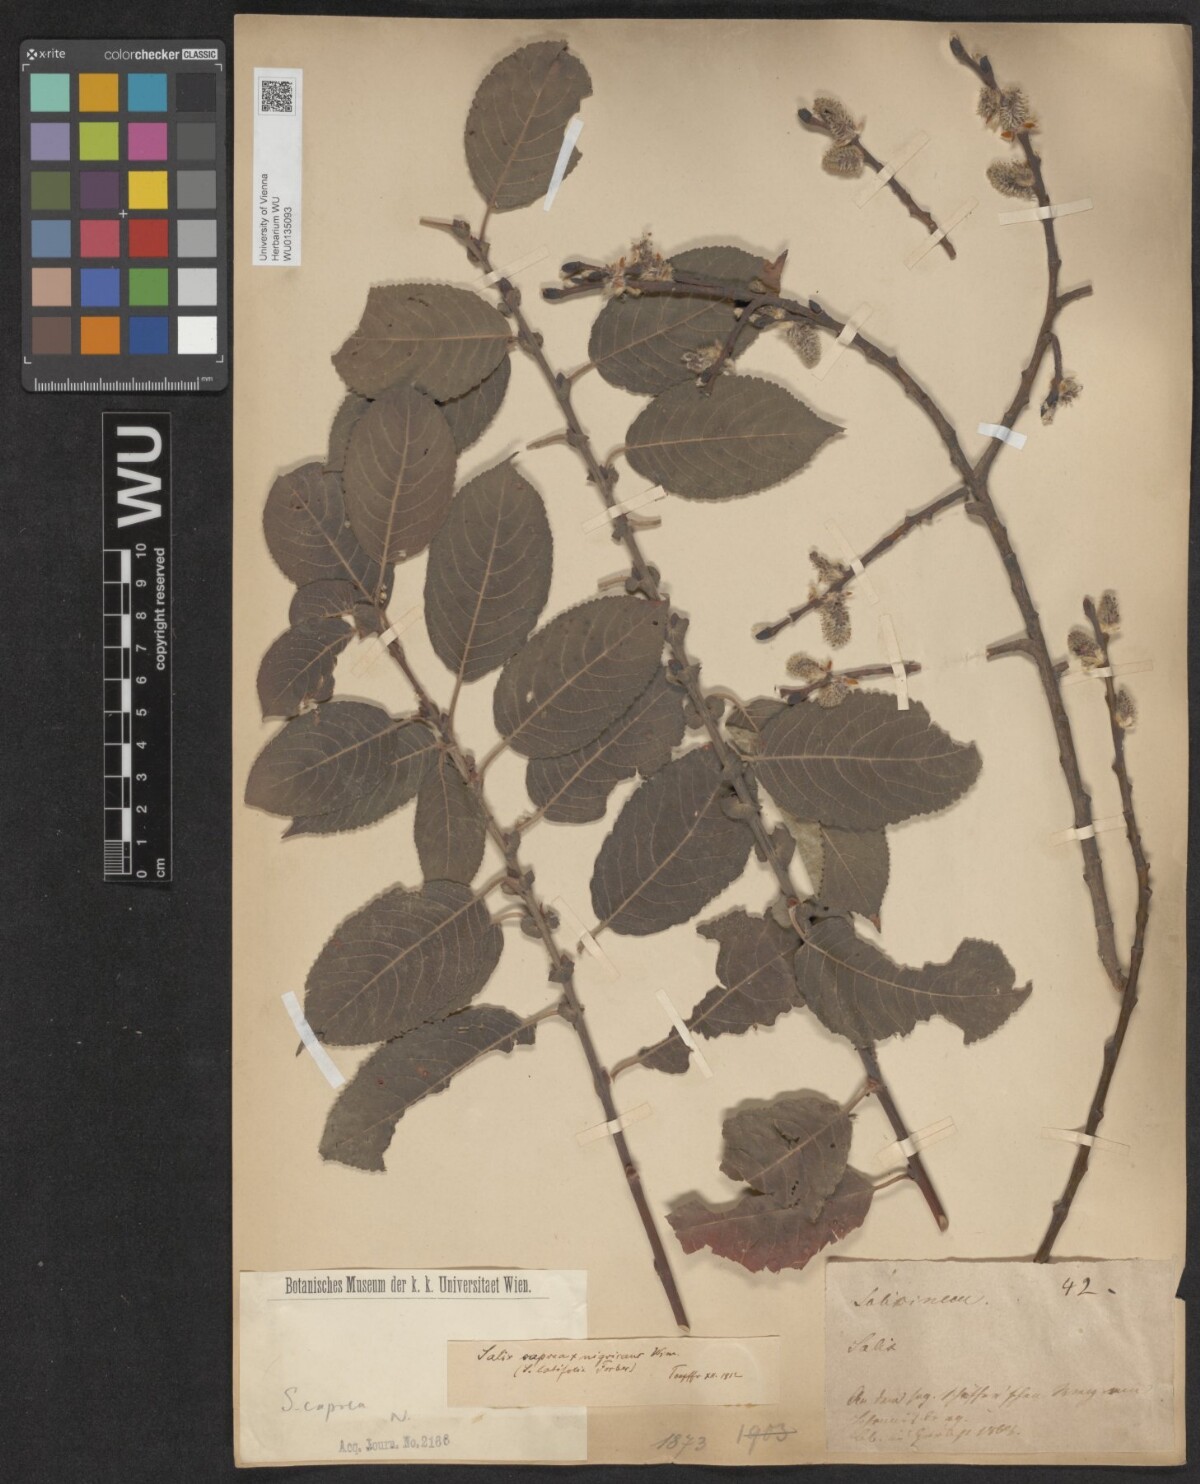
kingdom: Plantae
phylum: Tracheophyta
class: Magnoliopsida
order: Malpighiales
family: Salicaceae
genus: Salix
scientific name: Salix caprea
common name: Goat willow
